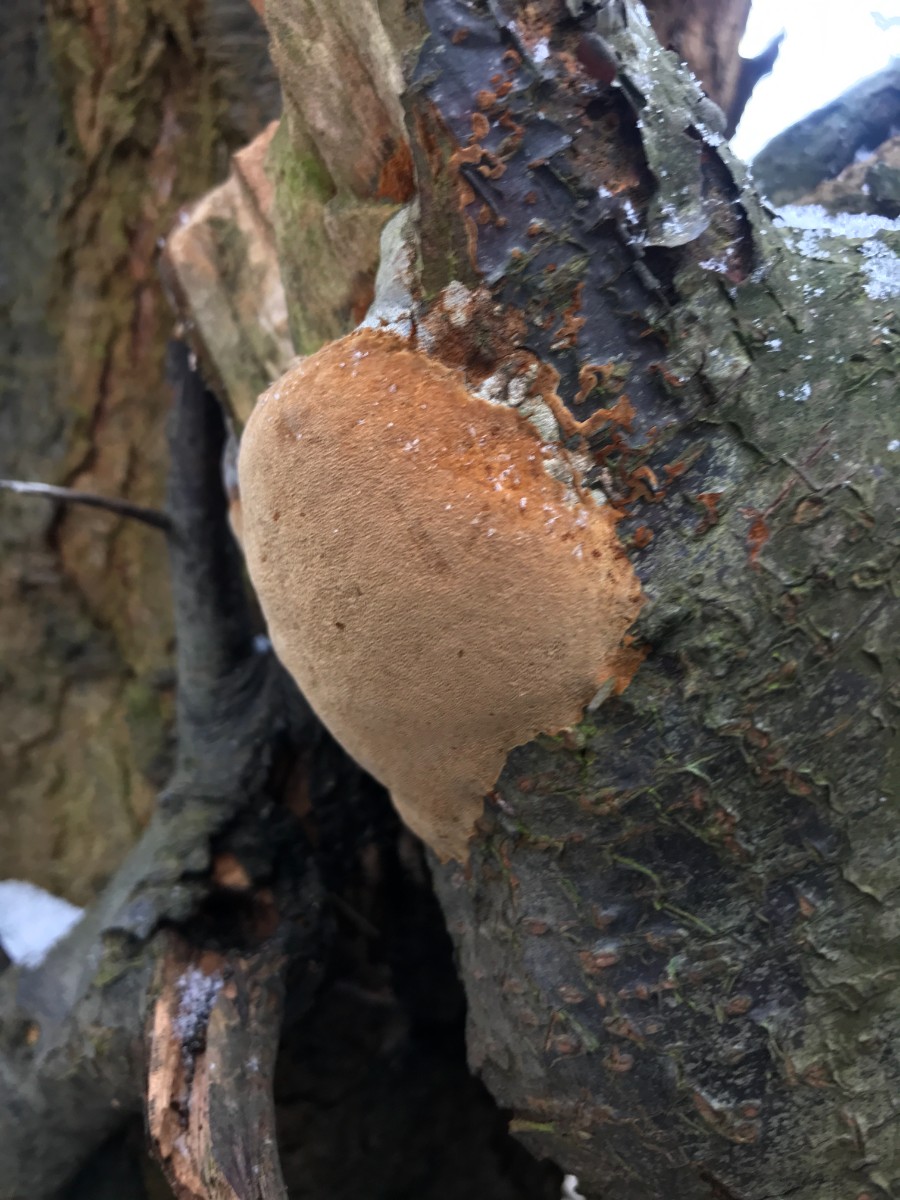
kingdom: Fungi
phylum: Basidiomycota
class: Agaricomycetes
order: Hymenochaetales
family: Hymenochaetaceae
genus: Phellinus
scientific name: Phellinus pomaceus
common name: blomme-ildporesvamp
